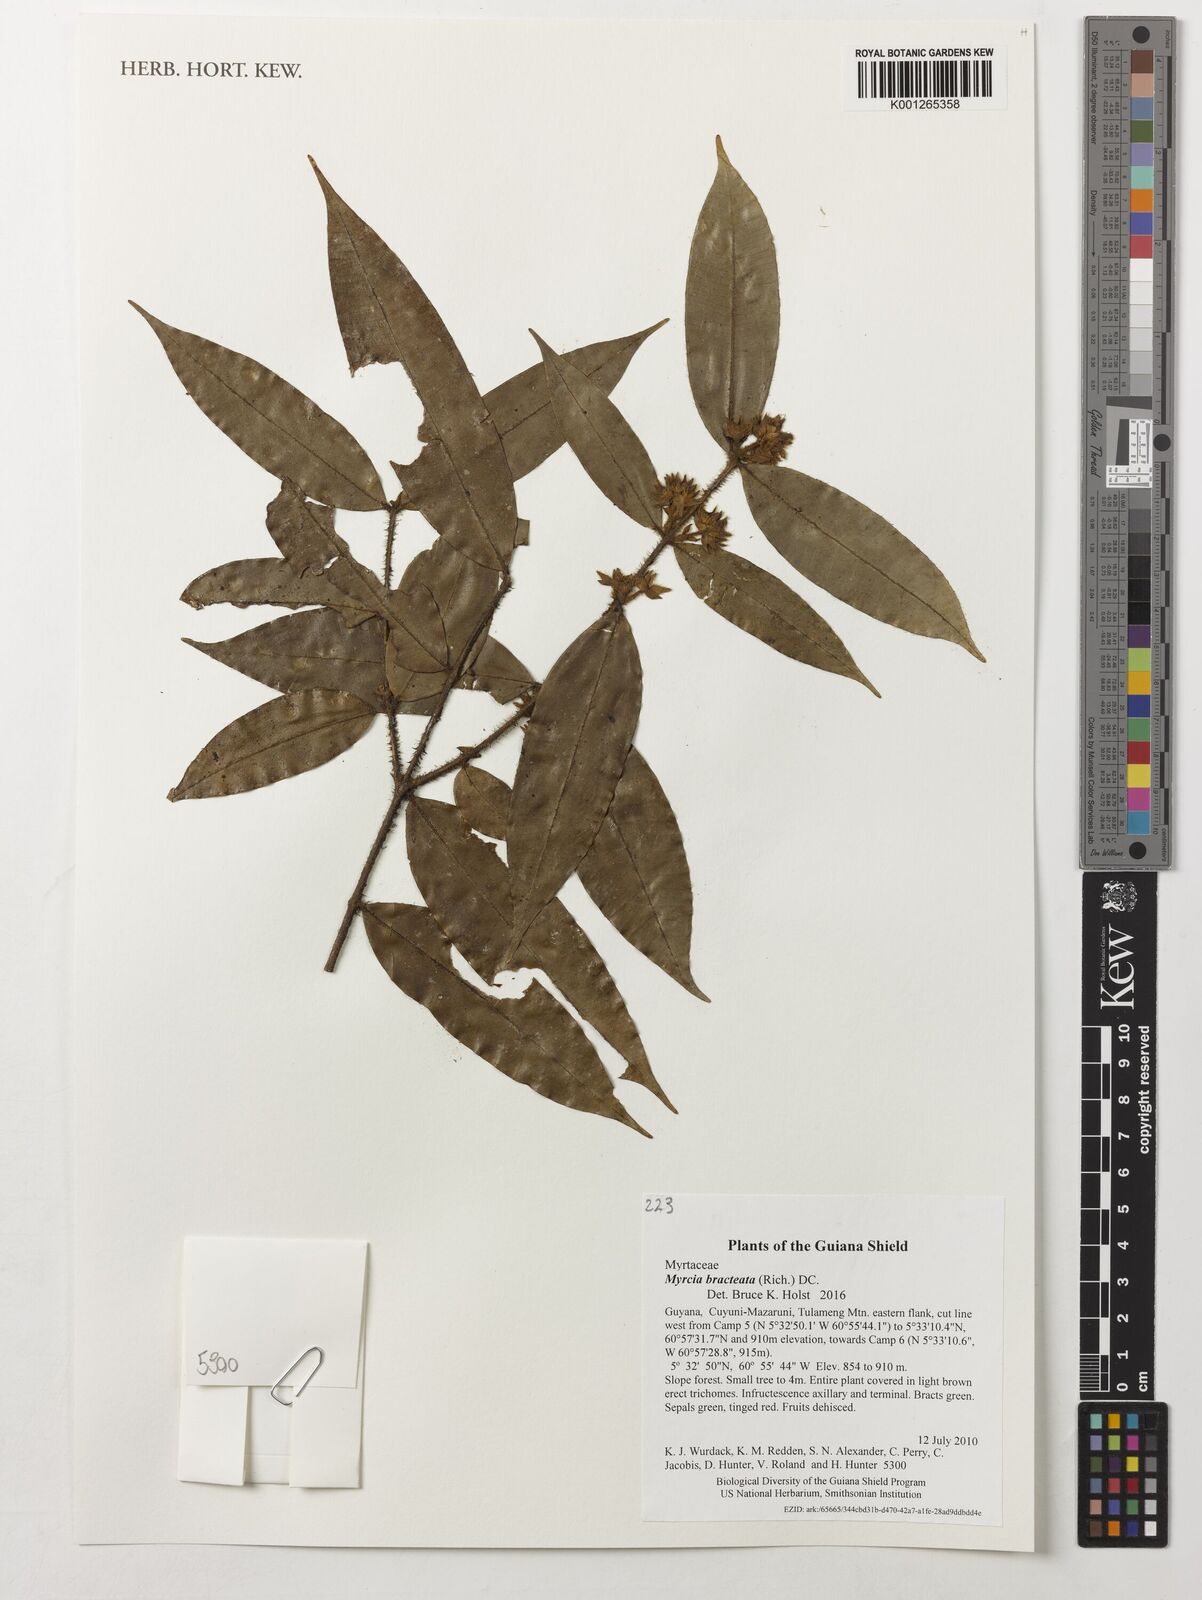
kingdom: Plantae
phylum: Tracheophyta
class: Magnoliopsida
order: Myrtales
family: Myrtaceae
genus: Myrcia
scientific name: Myrcia bracteata
